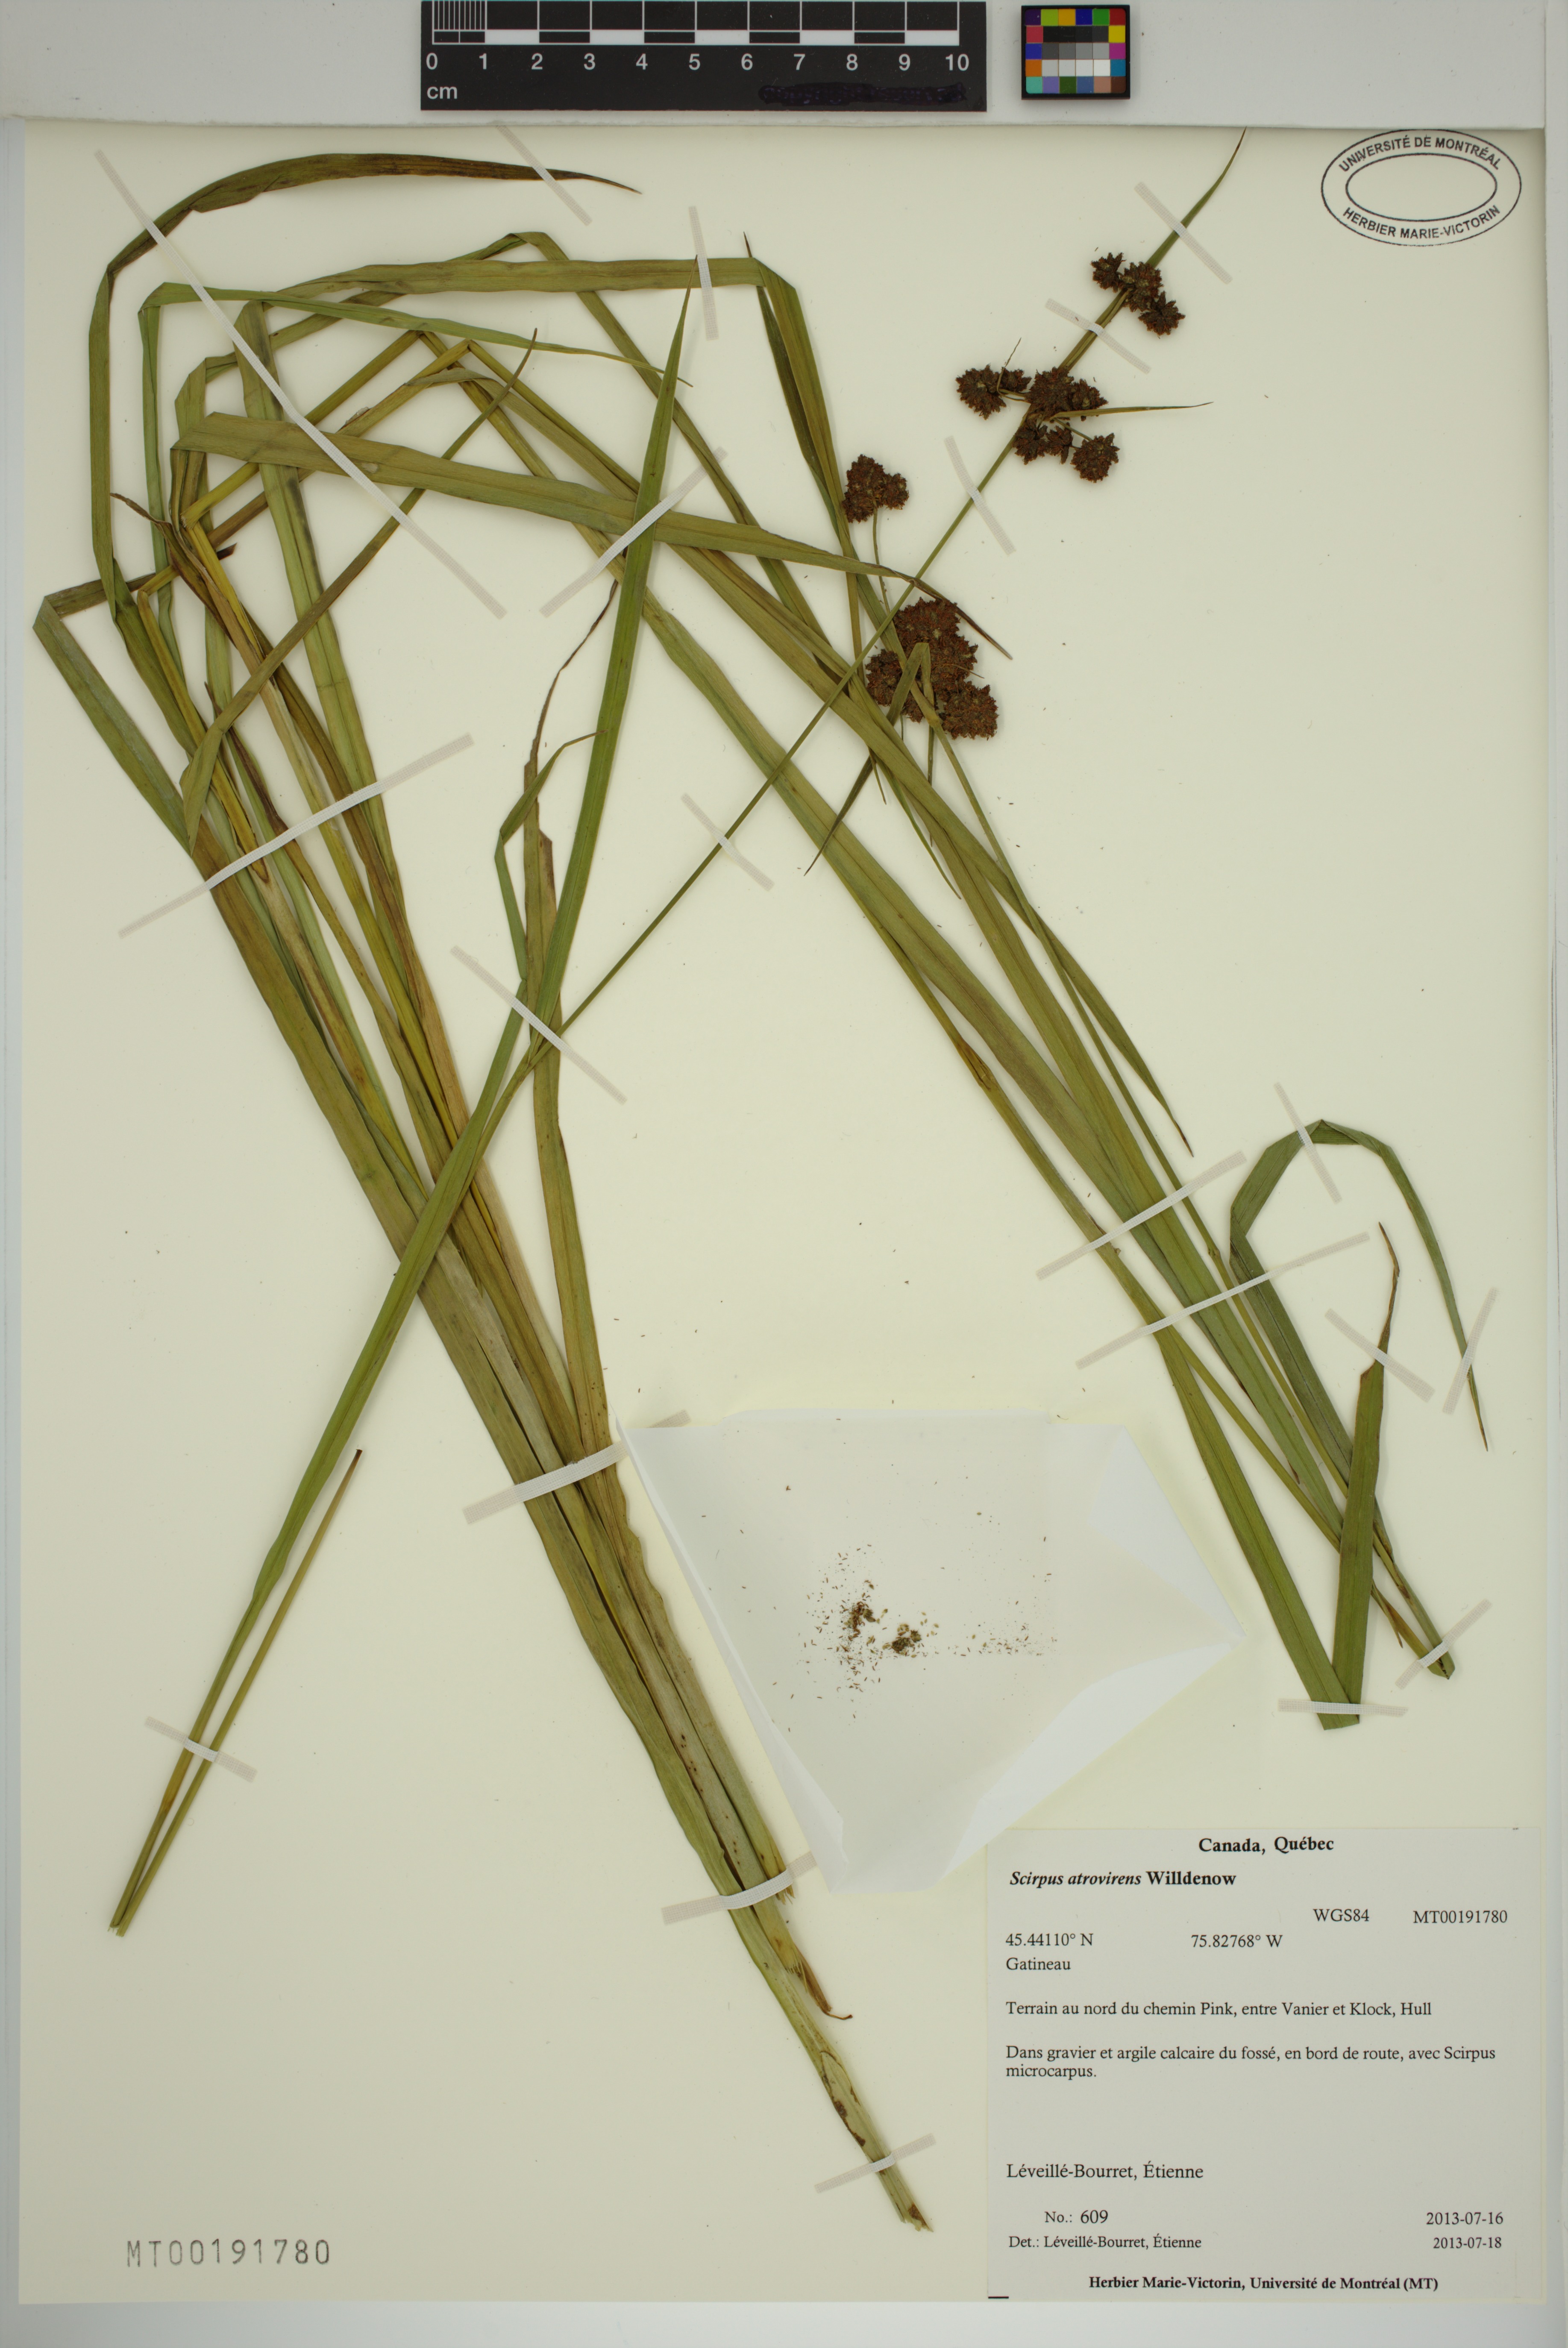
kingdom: Plantae
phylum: Tracheophyta
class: Liliopsida
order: Poales
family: Cyperaceae
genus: Scirpus
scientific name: Scirpus atrovirens
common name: Black bulrush
